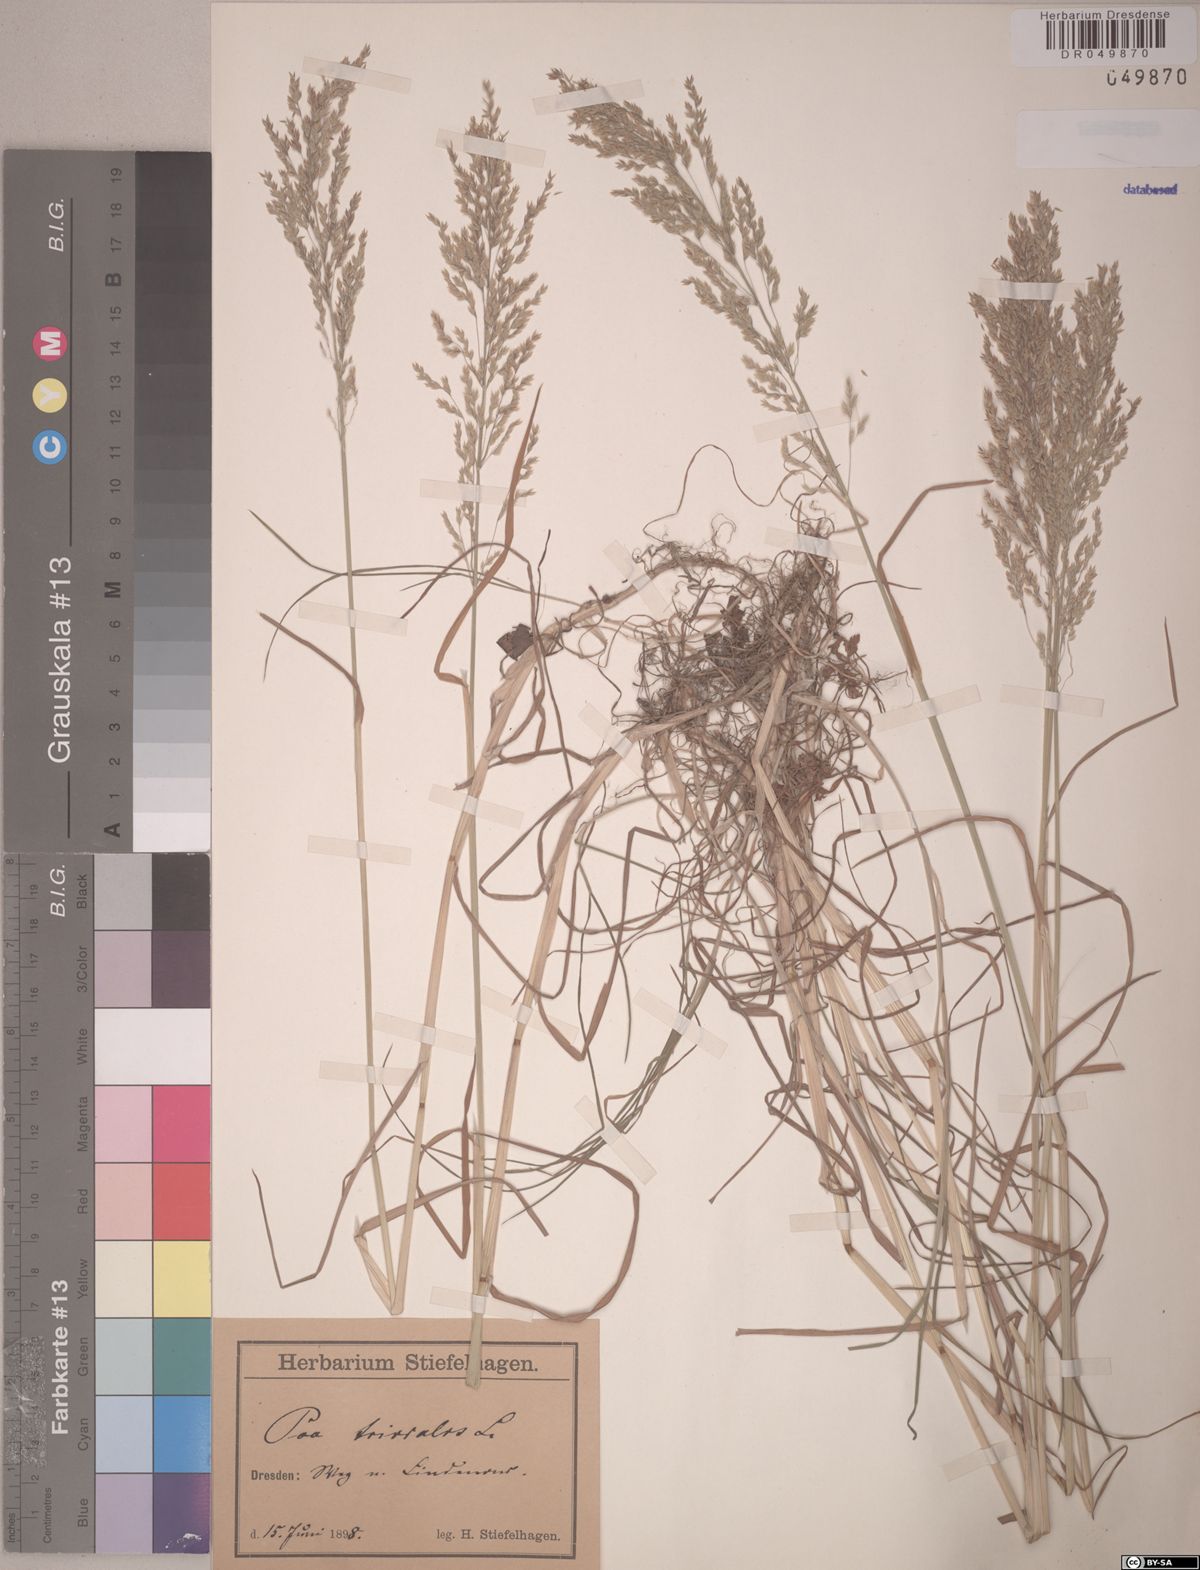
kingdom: Plantae
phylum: Tracheophyta
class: Liliopsida
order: Poales
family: Poaceae
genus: Poa
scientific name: Poa trivialis
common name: Rough bluegrass
